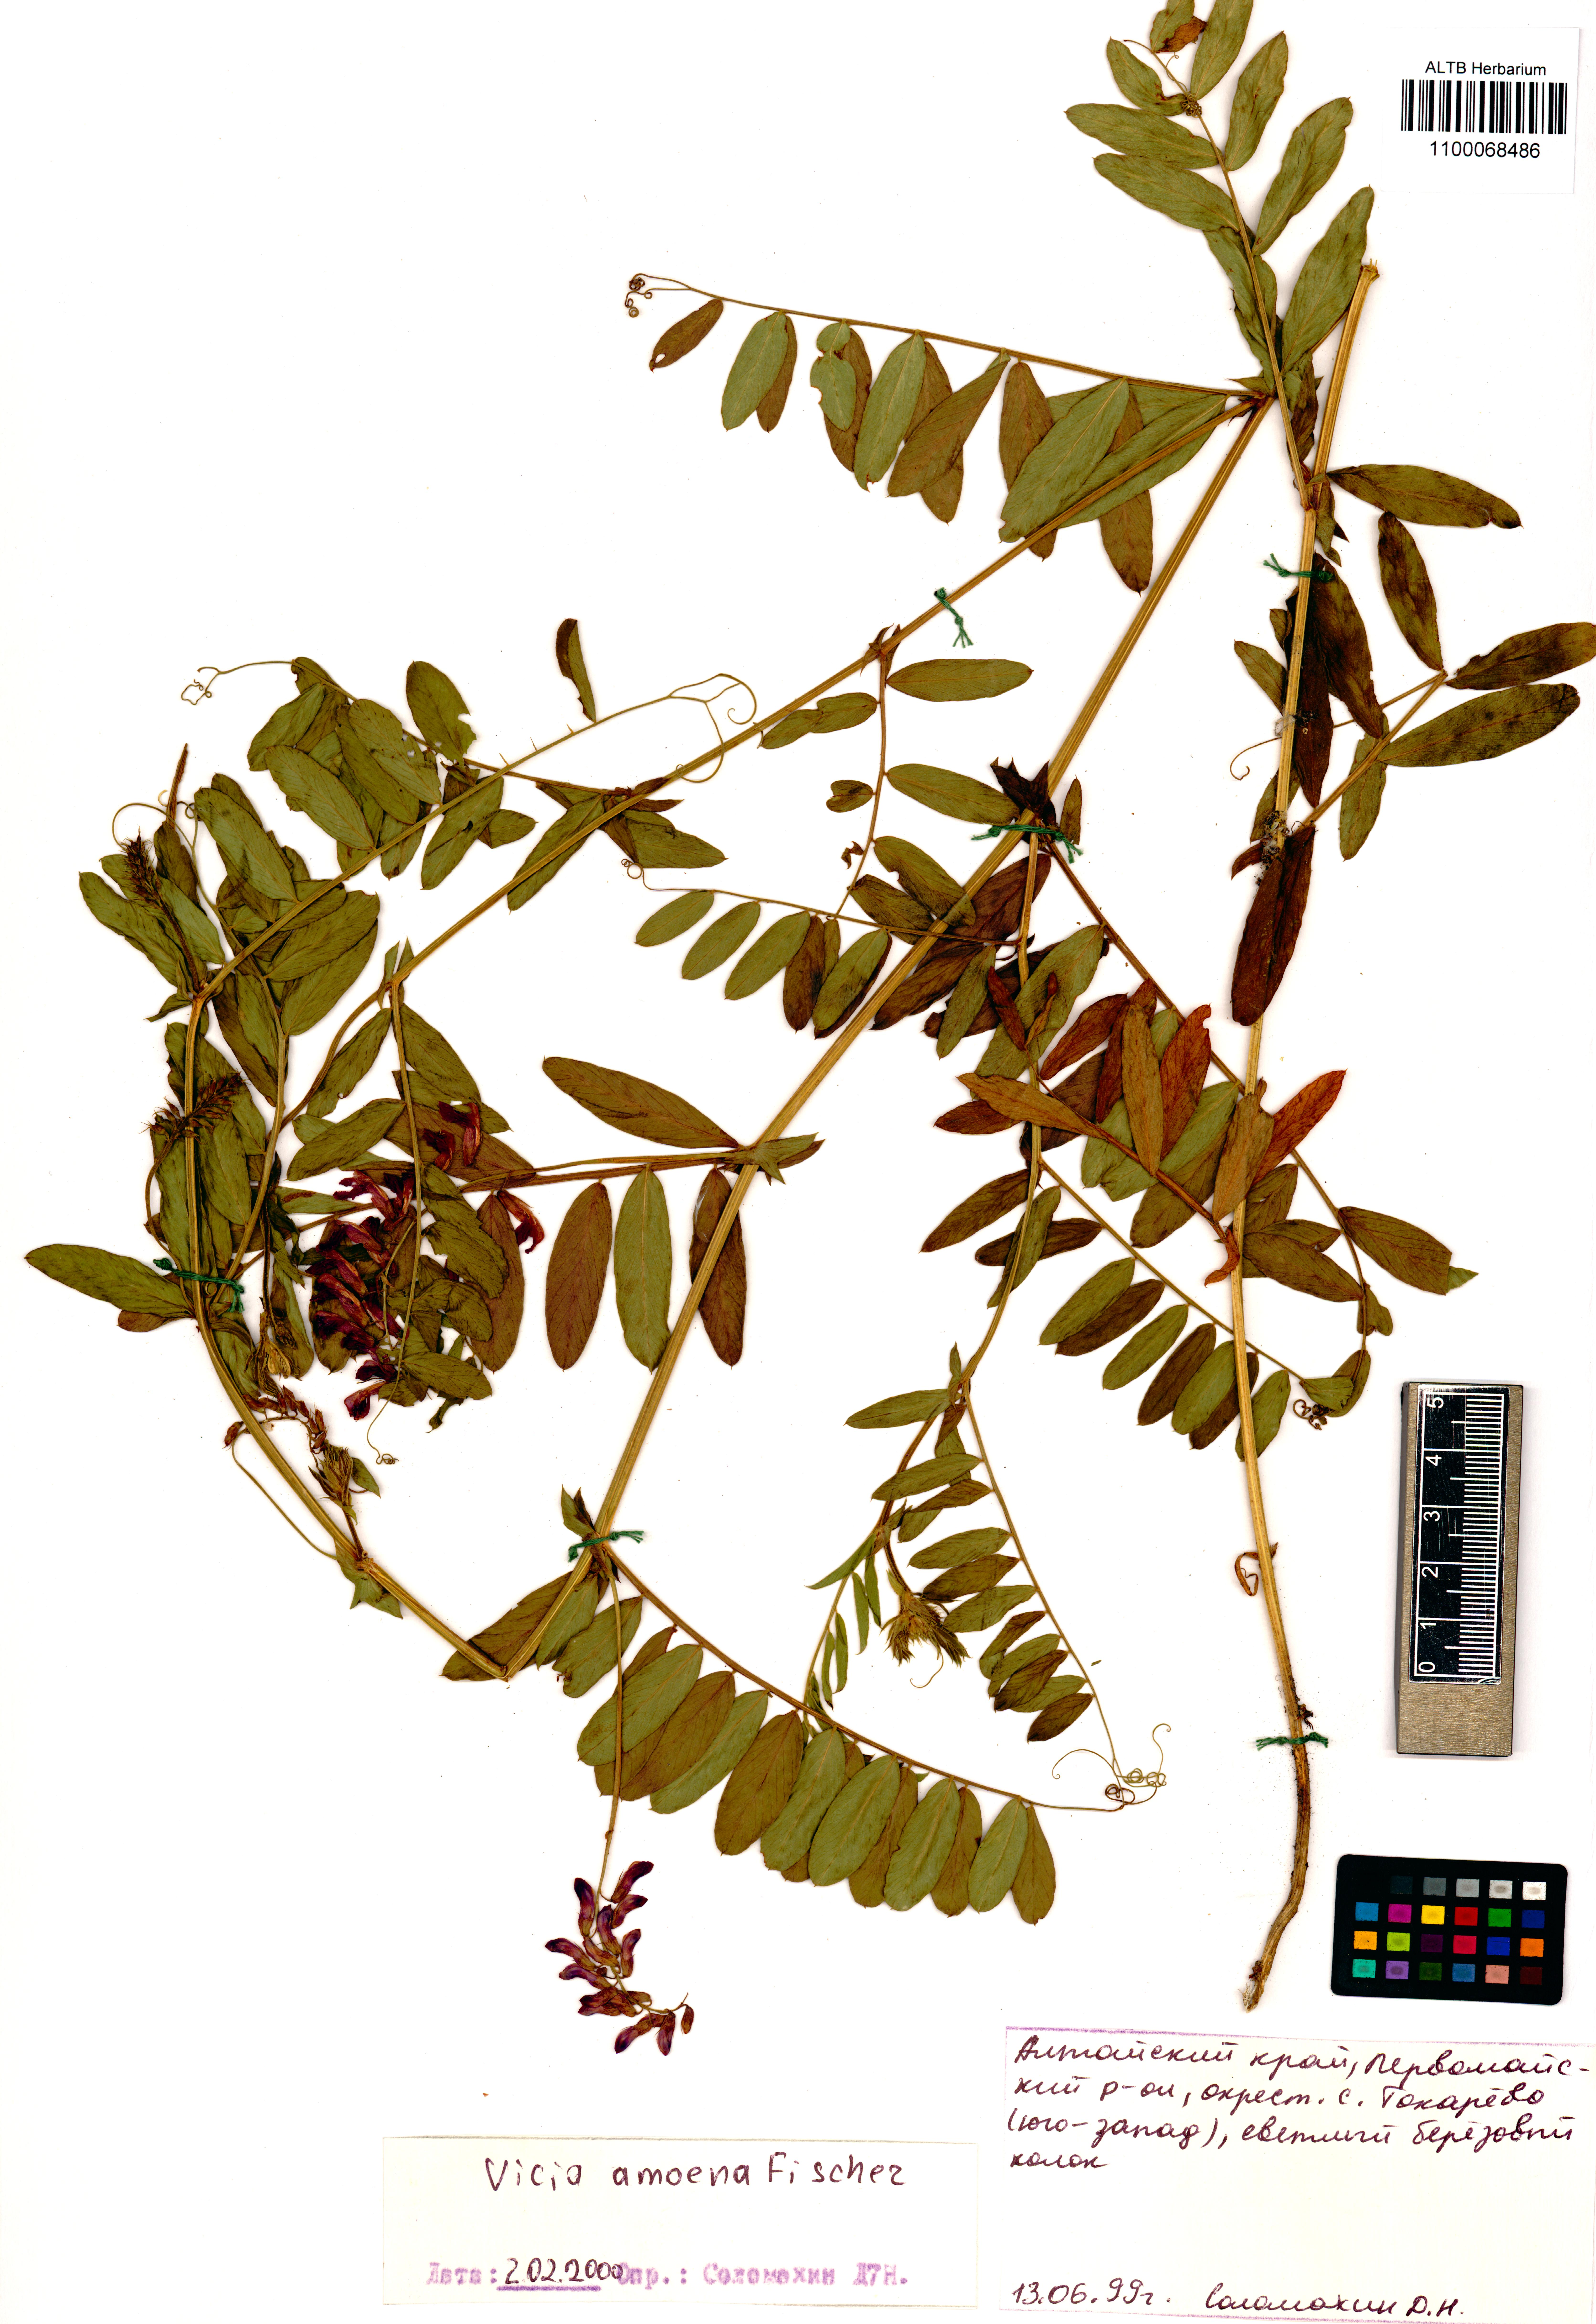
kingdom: Plantae
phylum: Tracheophyta
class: Magnoliopsida
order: Fabales
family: Fabaceae
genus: Vicia
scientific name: Vicia amoena
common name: Cheder ebs
